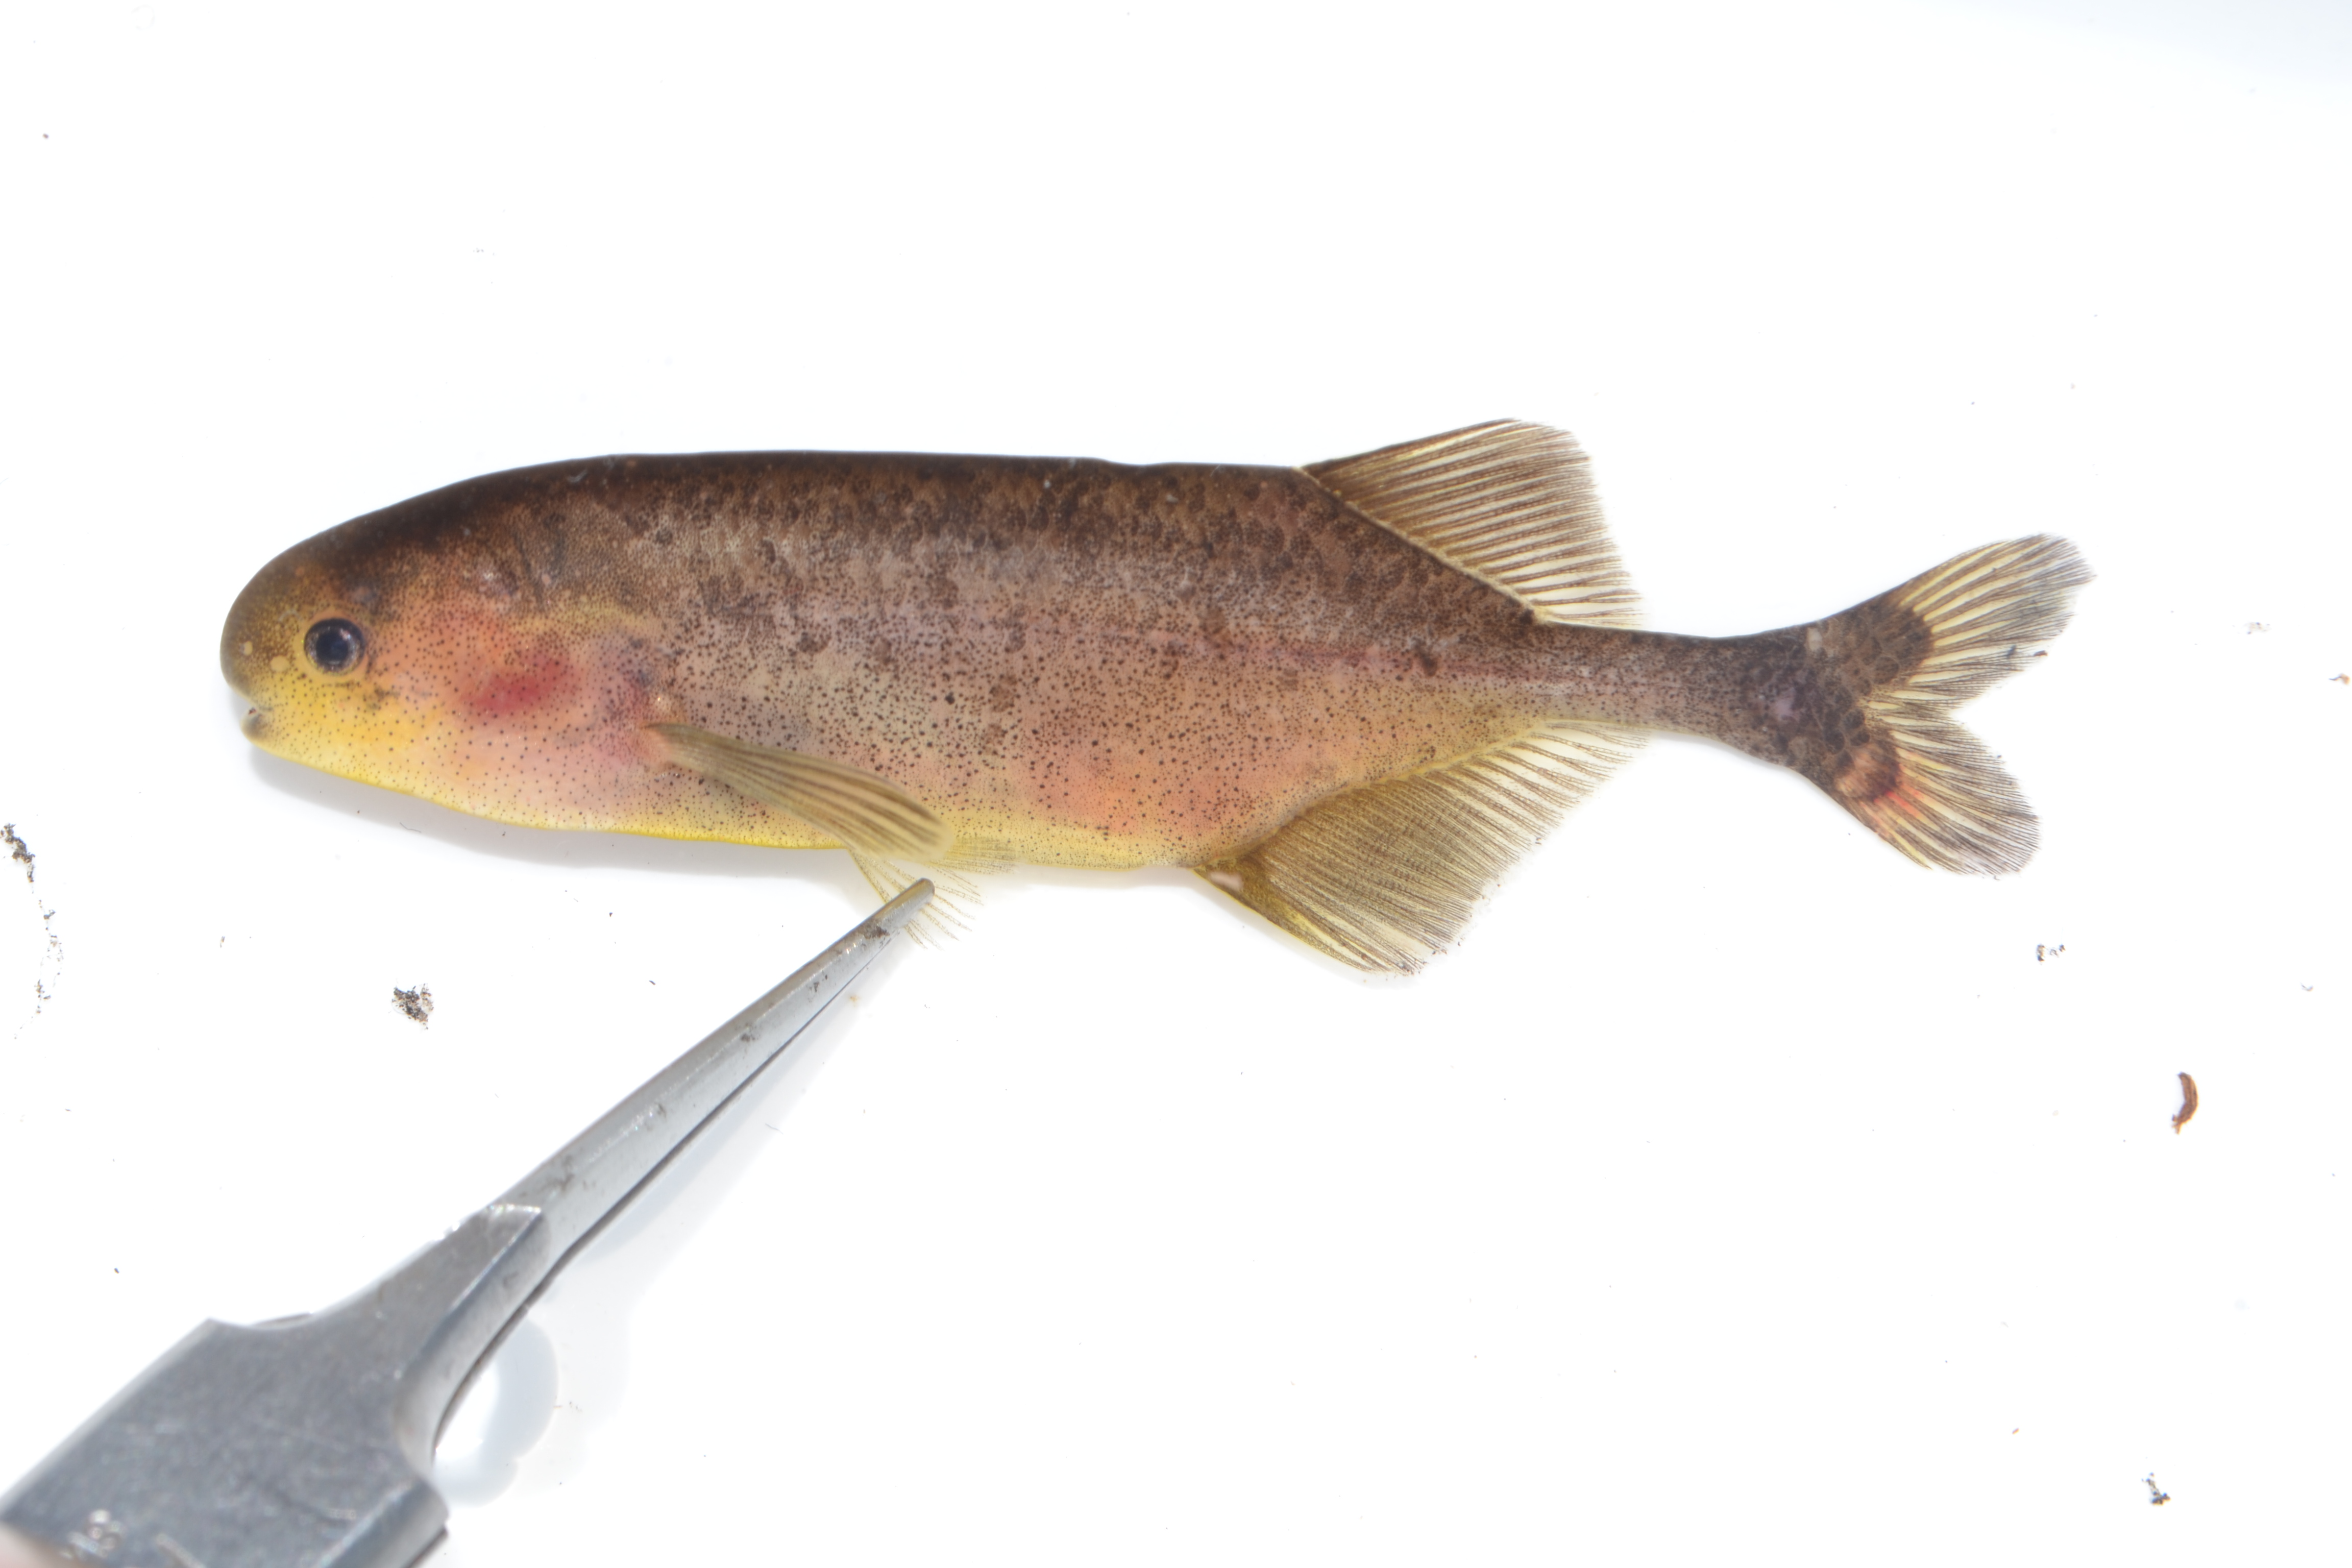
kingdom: Animalia
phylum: Chordata
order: Osteoglossiformes
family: Mormyridae
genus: Pollimyrus
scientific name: Pollimyrus
